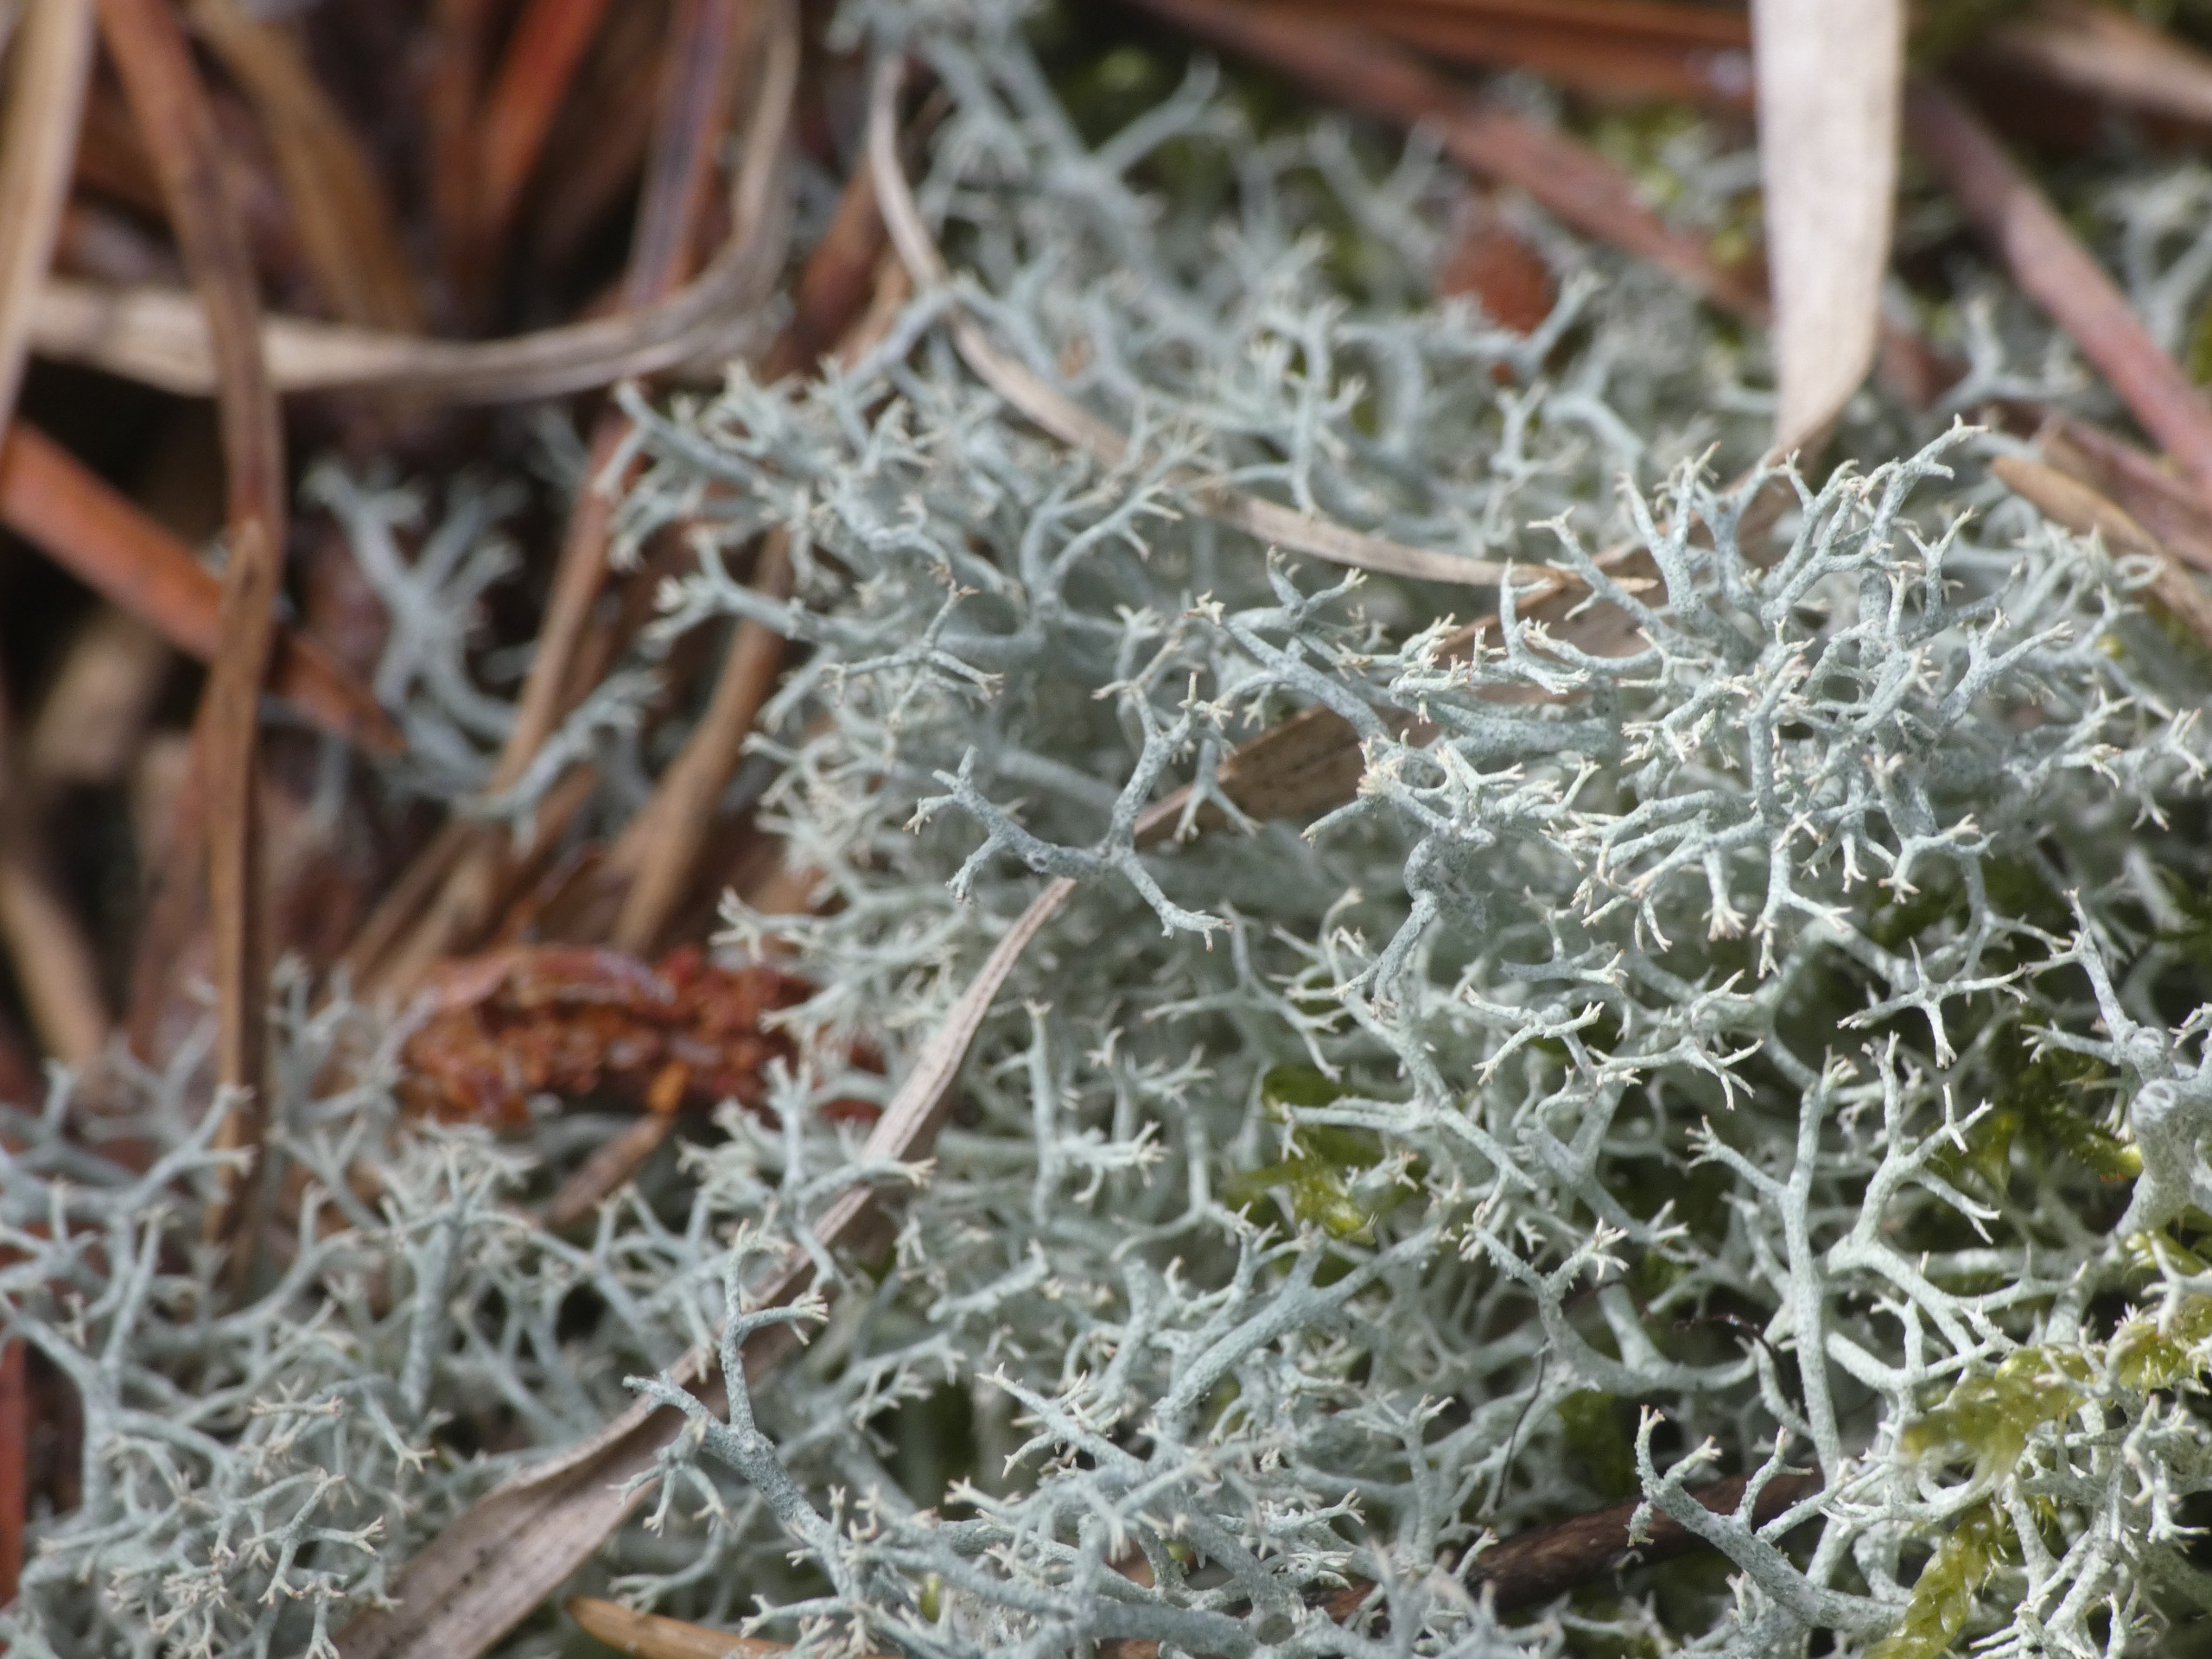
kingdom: Fungi
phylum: Ascomycota
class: Lecanoromycetes
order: Lecanorales
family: Cladoniaceae
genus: Cladonia
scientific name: Cladonia portentosa
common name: Hede-rensdyrlav
